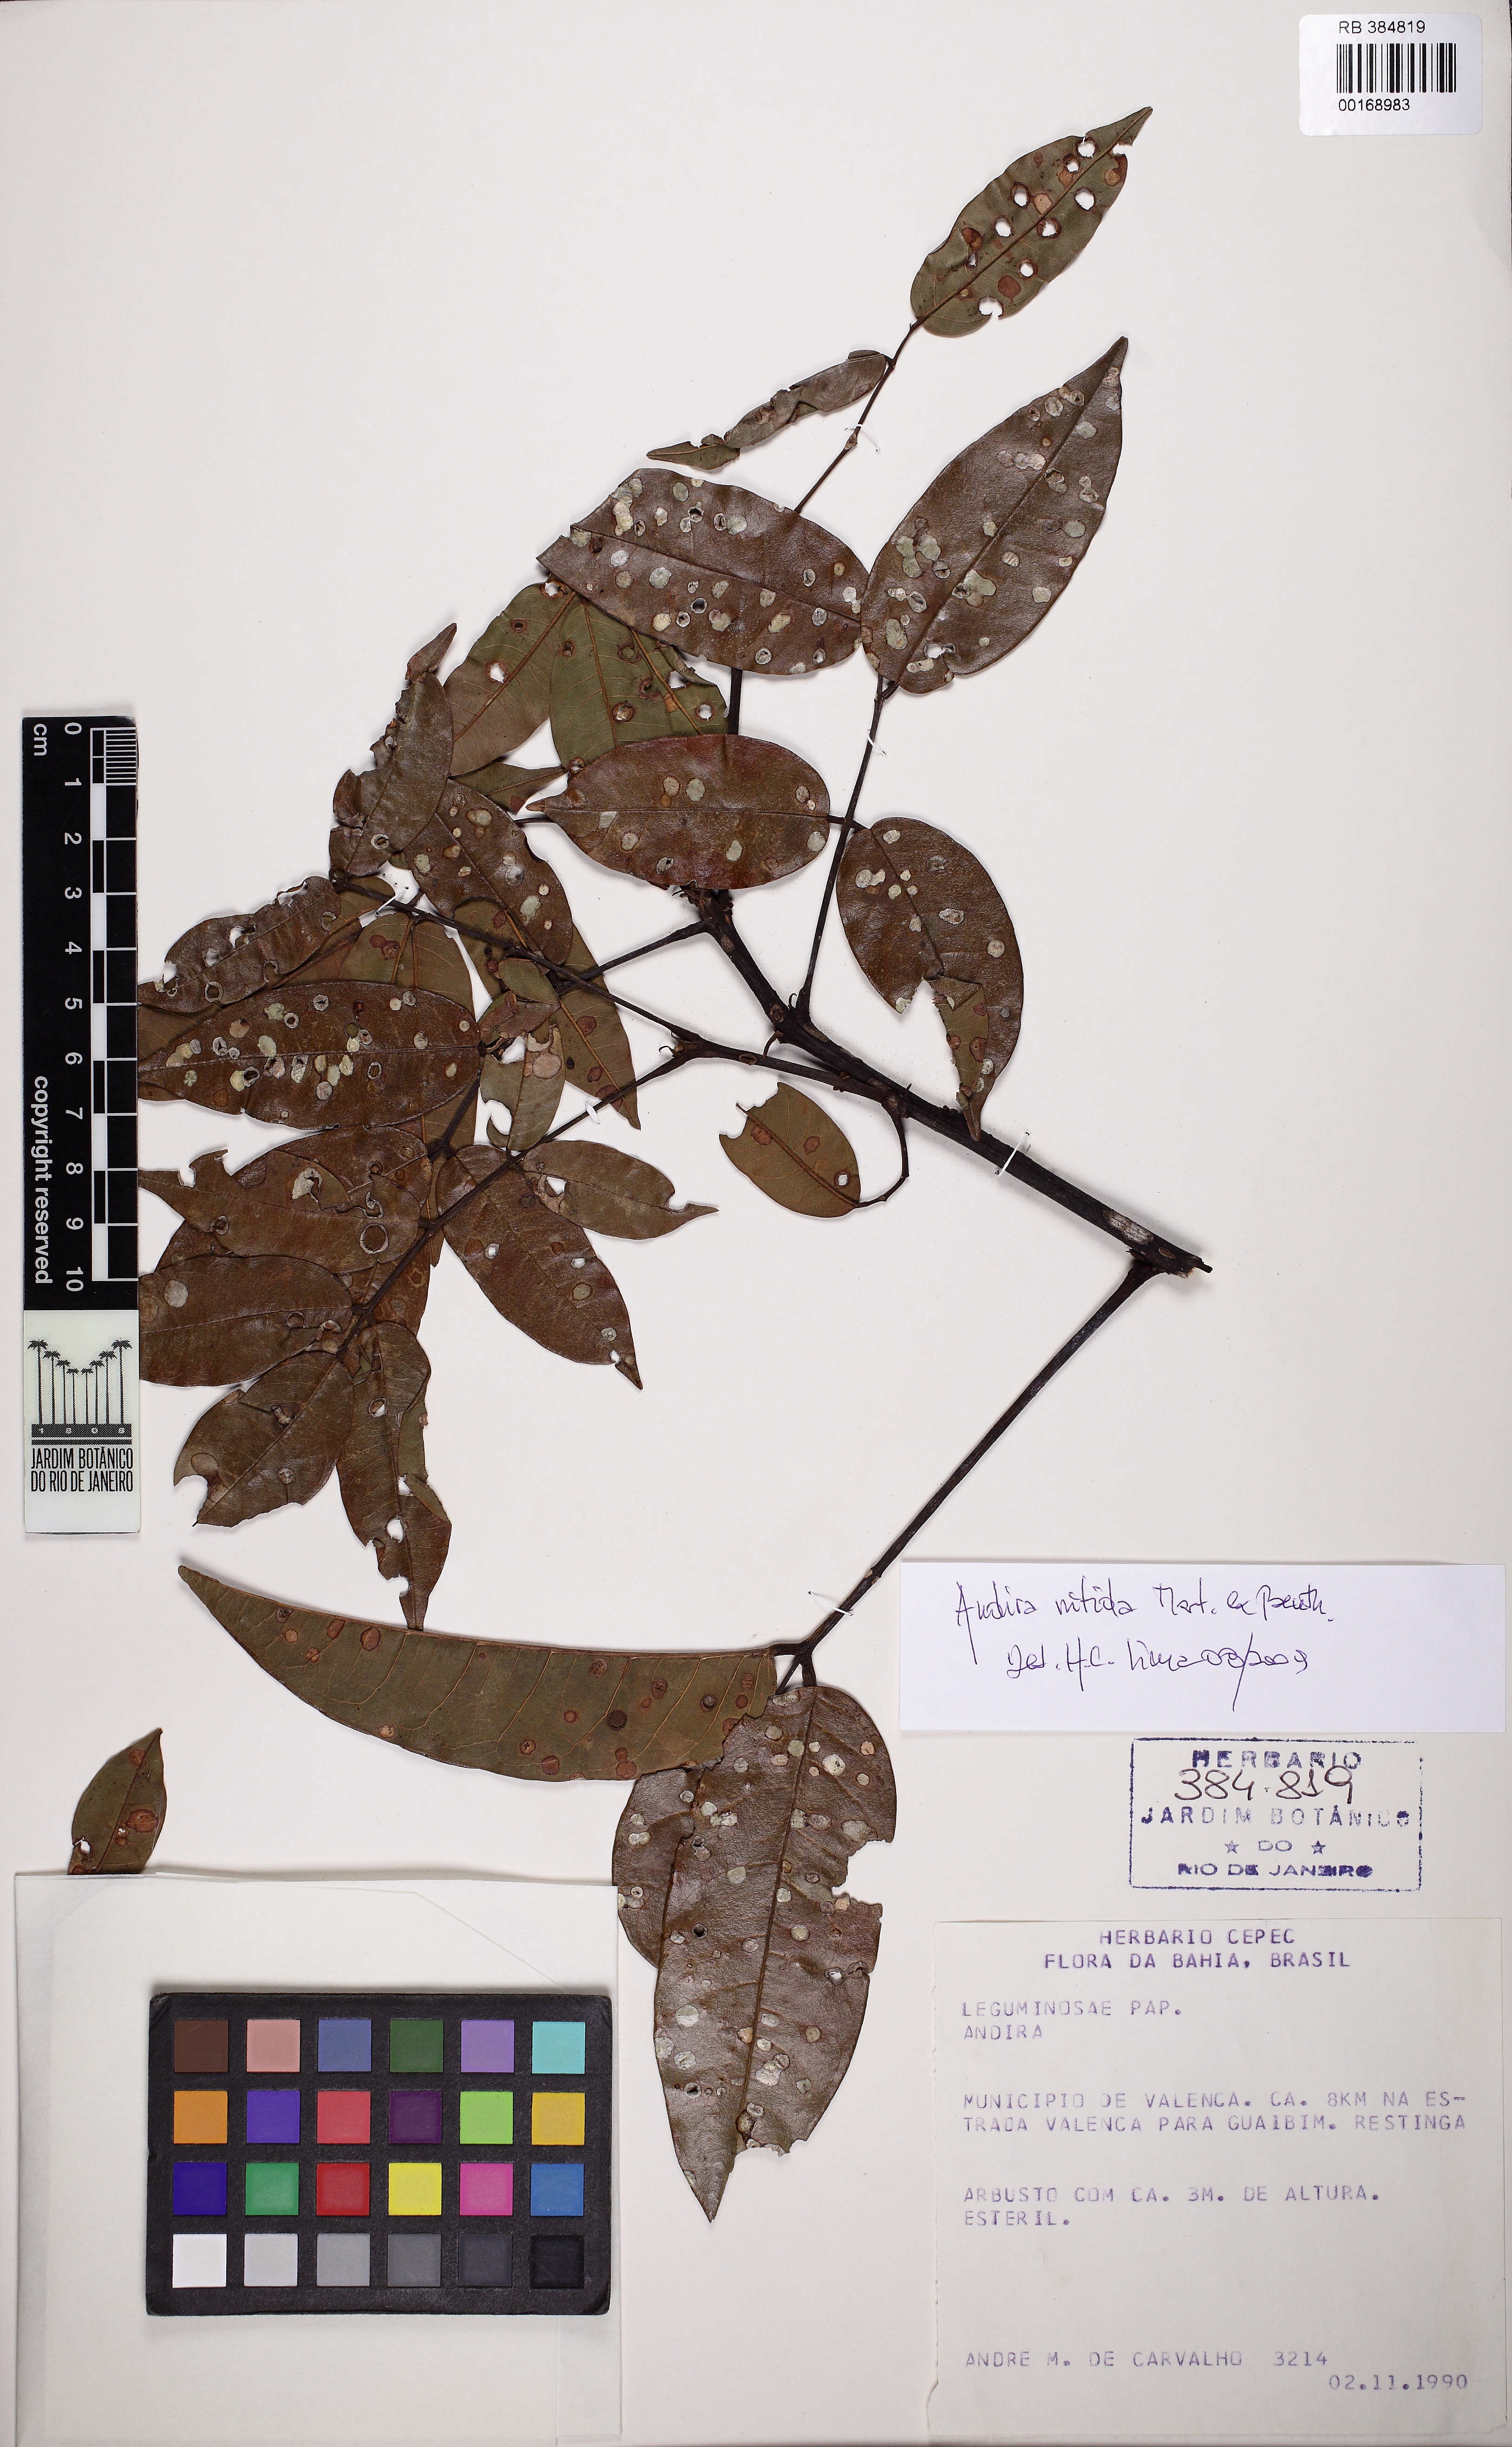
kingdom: Plantae
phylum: Tracheophyta
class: Magnoliopsida
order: Fabales
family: Fabaceae
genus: Andira
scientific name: Andira
